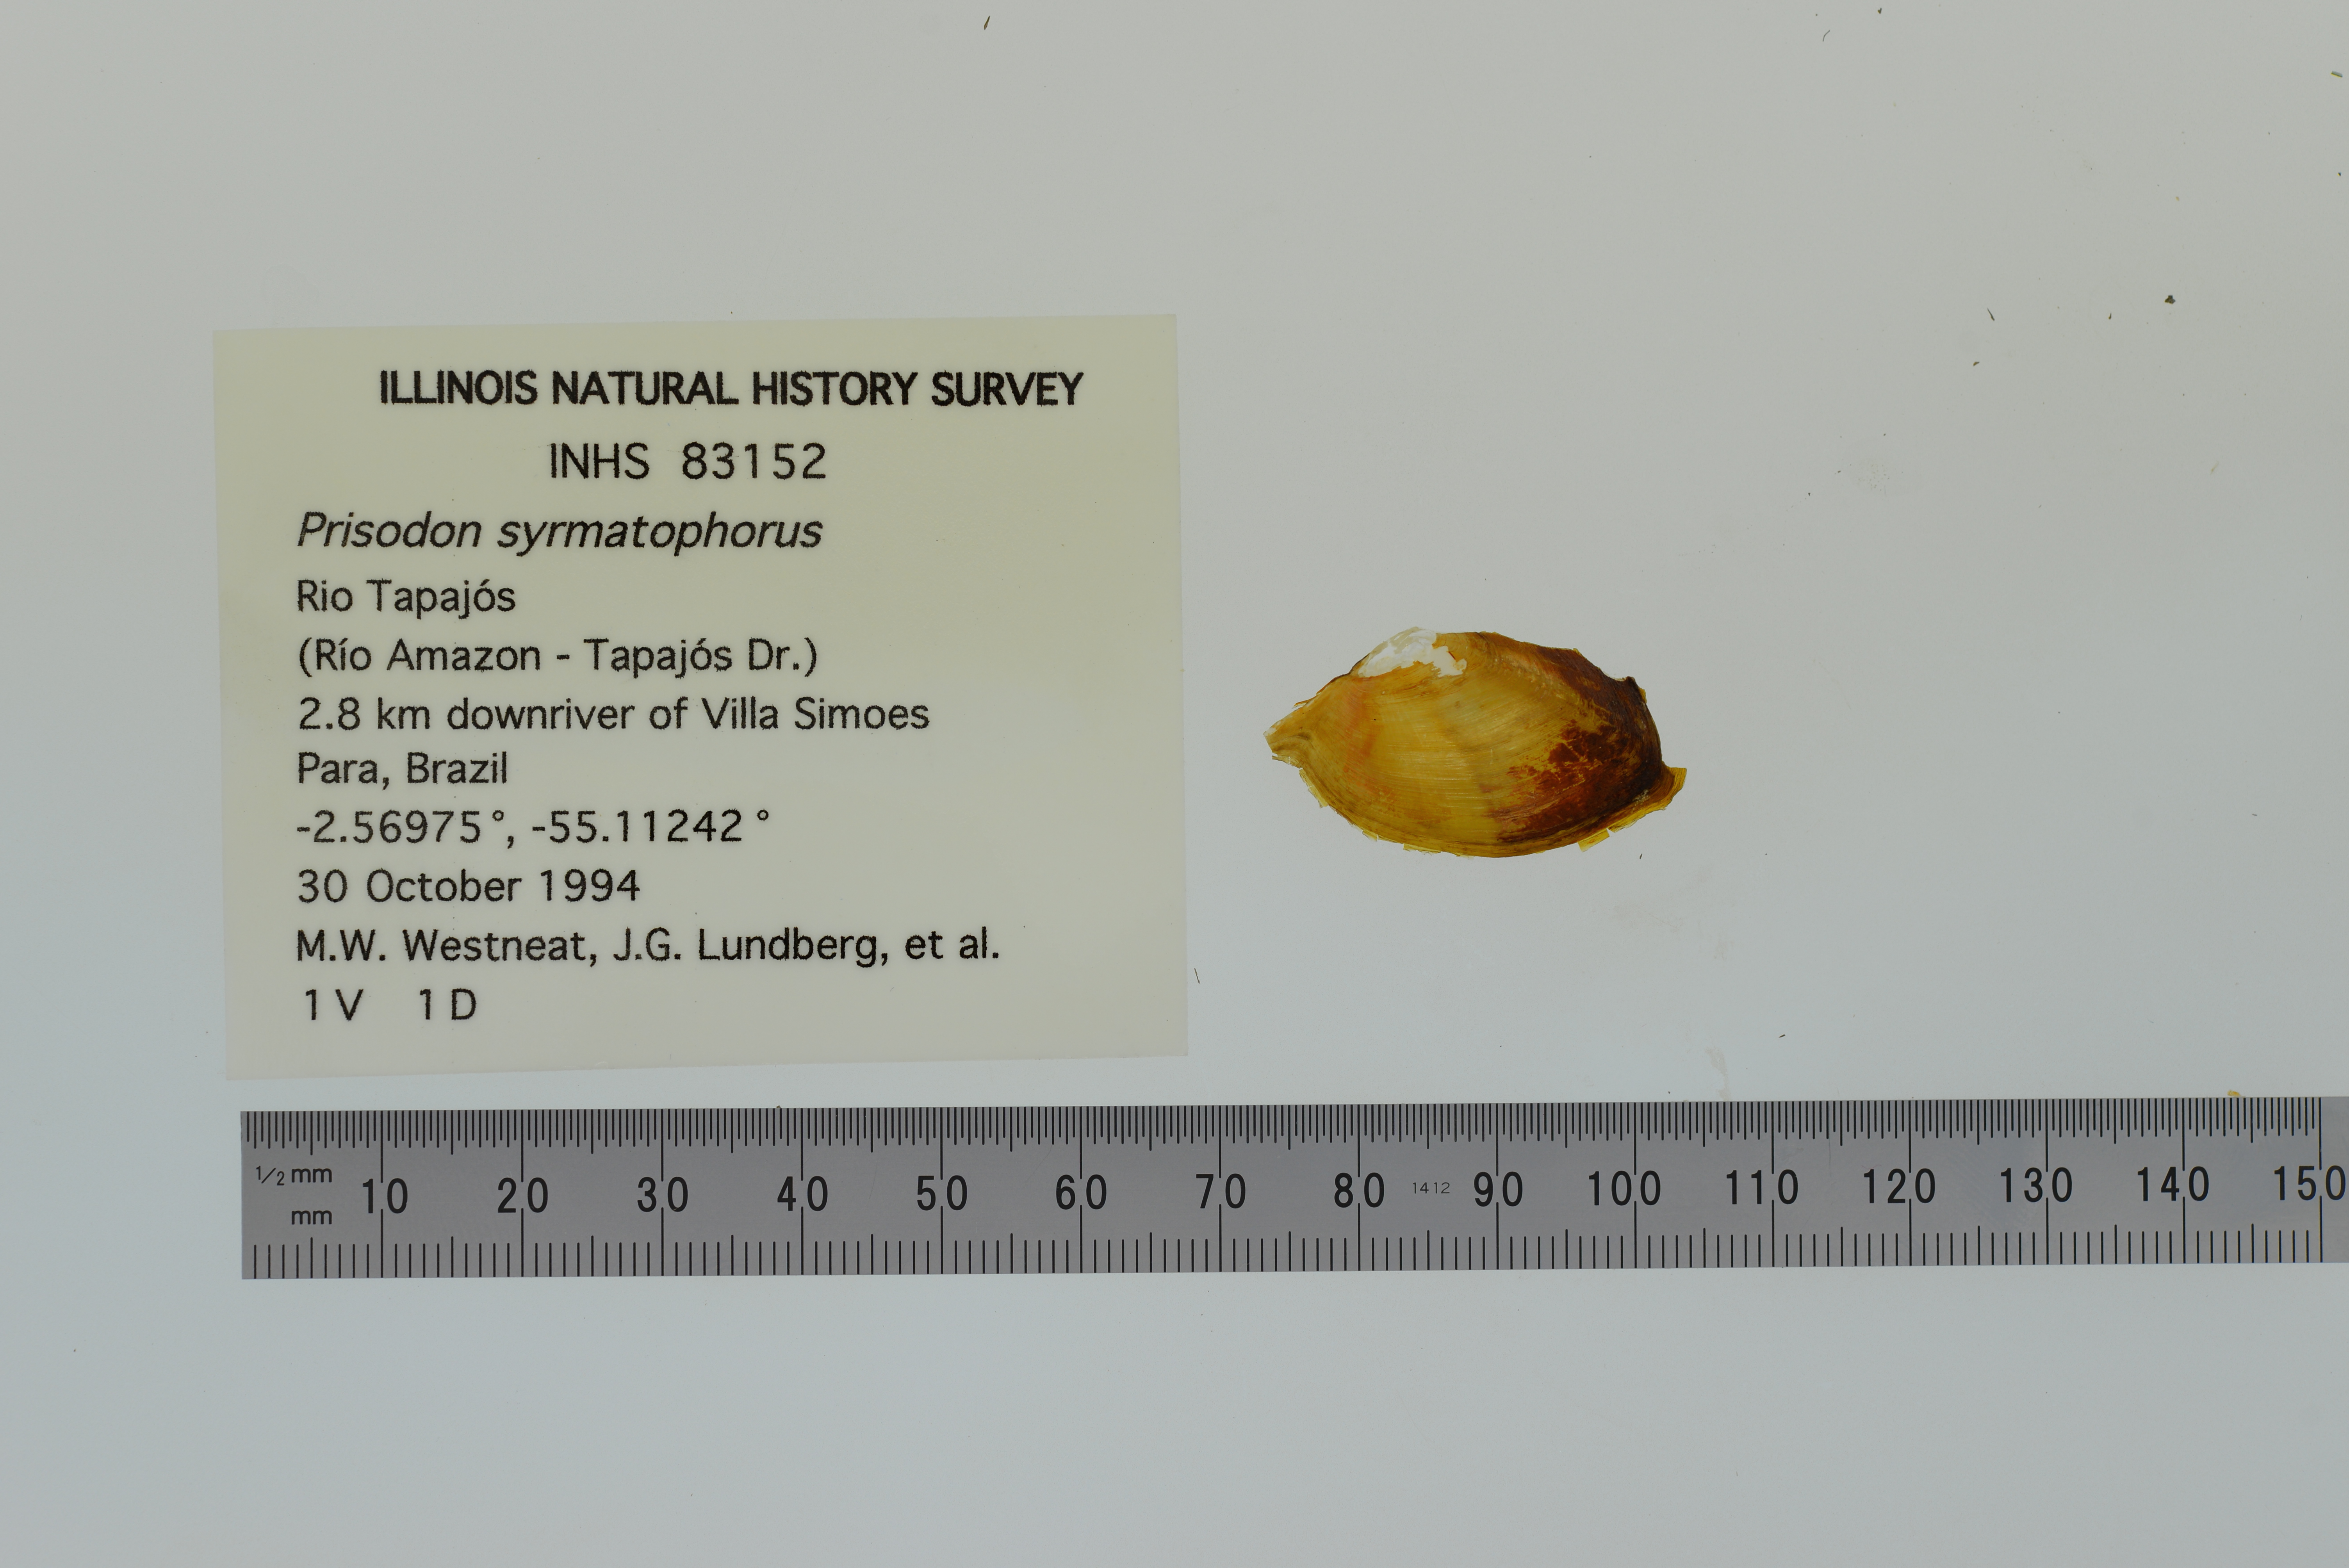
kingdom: Animalia
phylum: Mollusca
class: Bivalvia
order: Unionida
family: Hyriidae
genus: Prisodon
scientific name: Prisodon syrmatophorus
